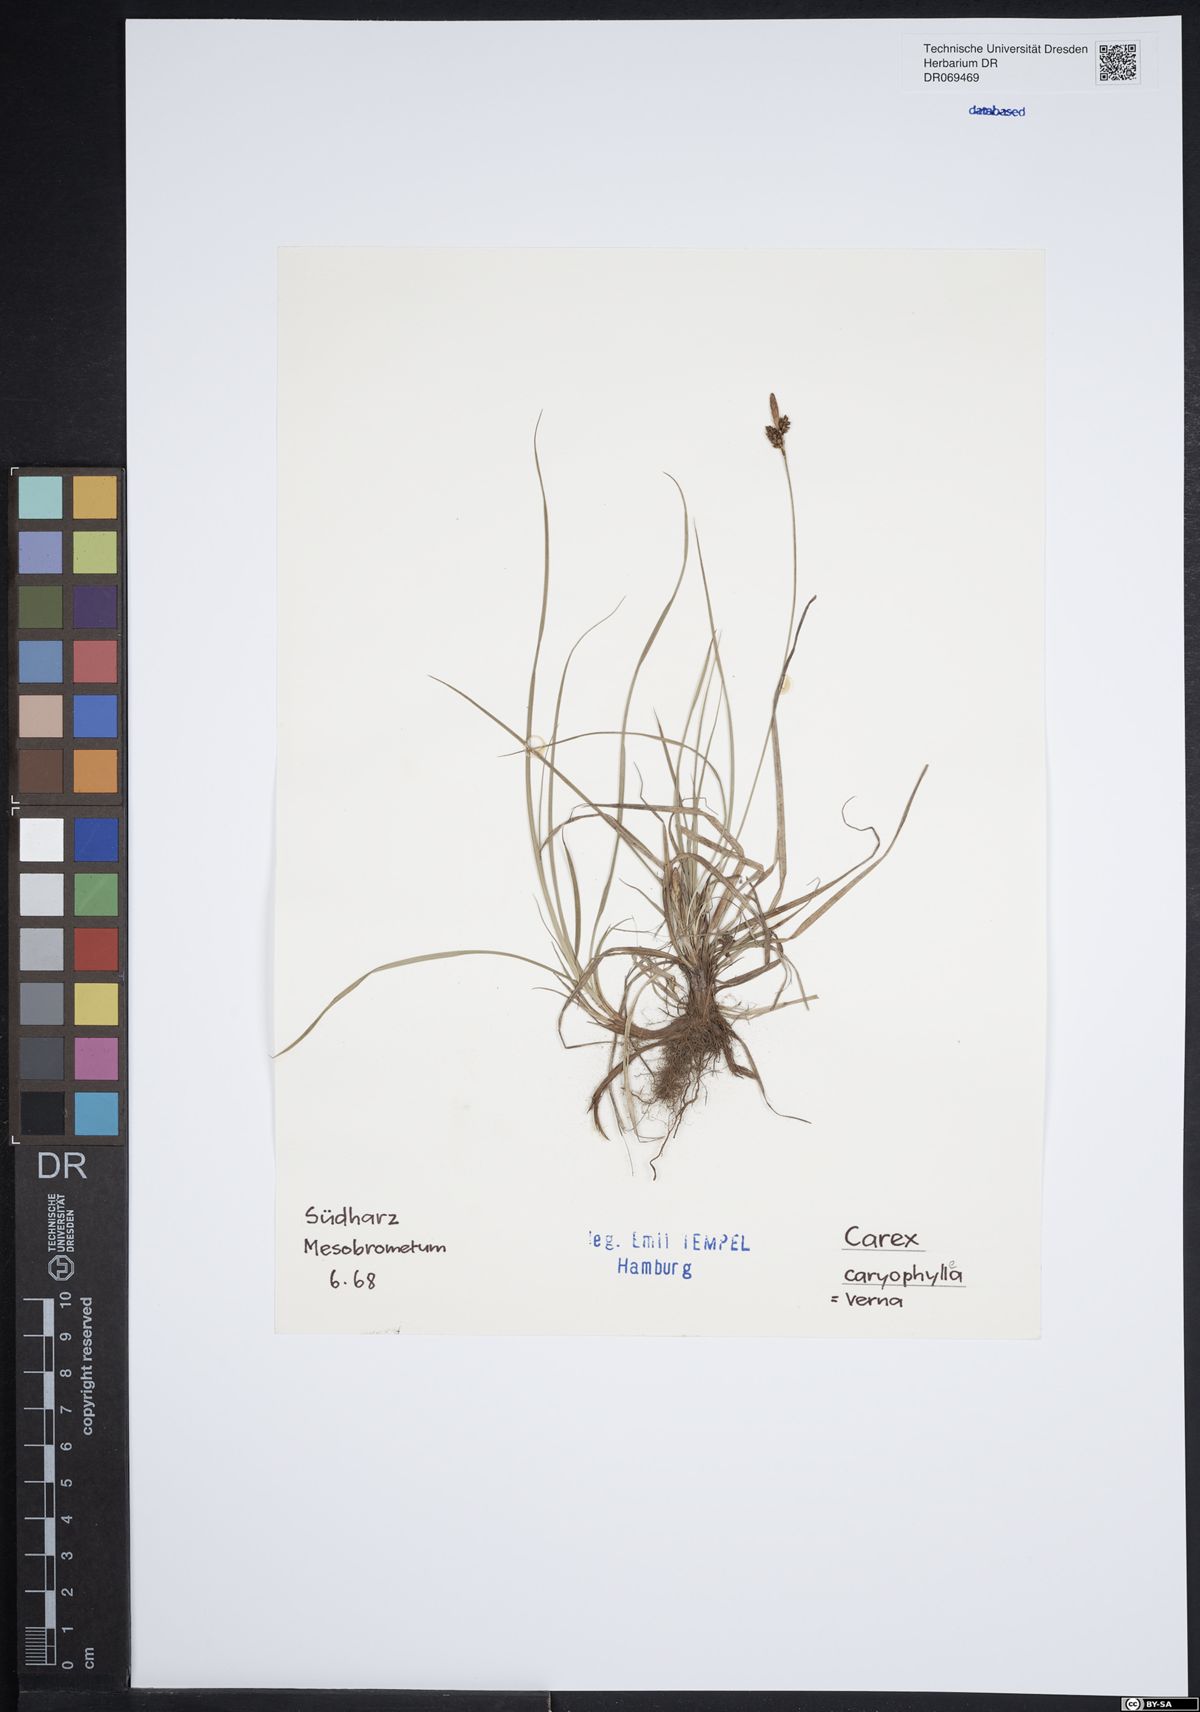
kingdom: Plantae
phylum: Tracheophyta
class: Liliopsida
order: Poales
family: Cyperaceae
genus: Carex
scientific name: Carex caryophyllea
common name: Spring sedge
